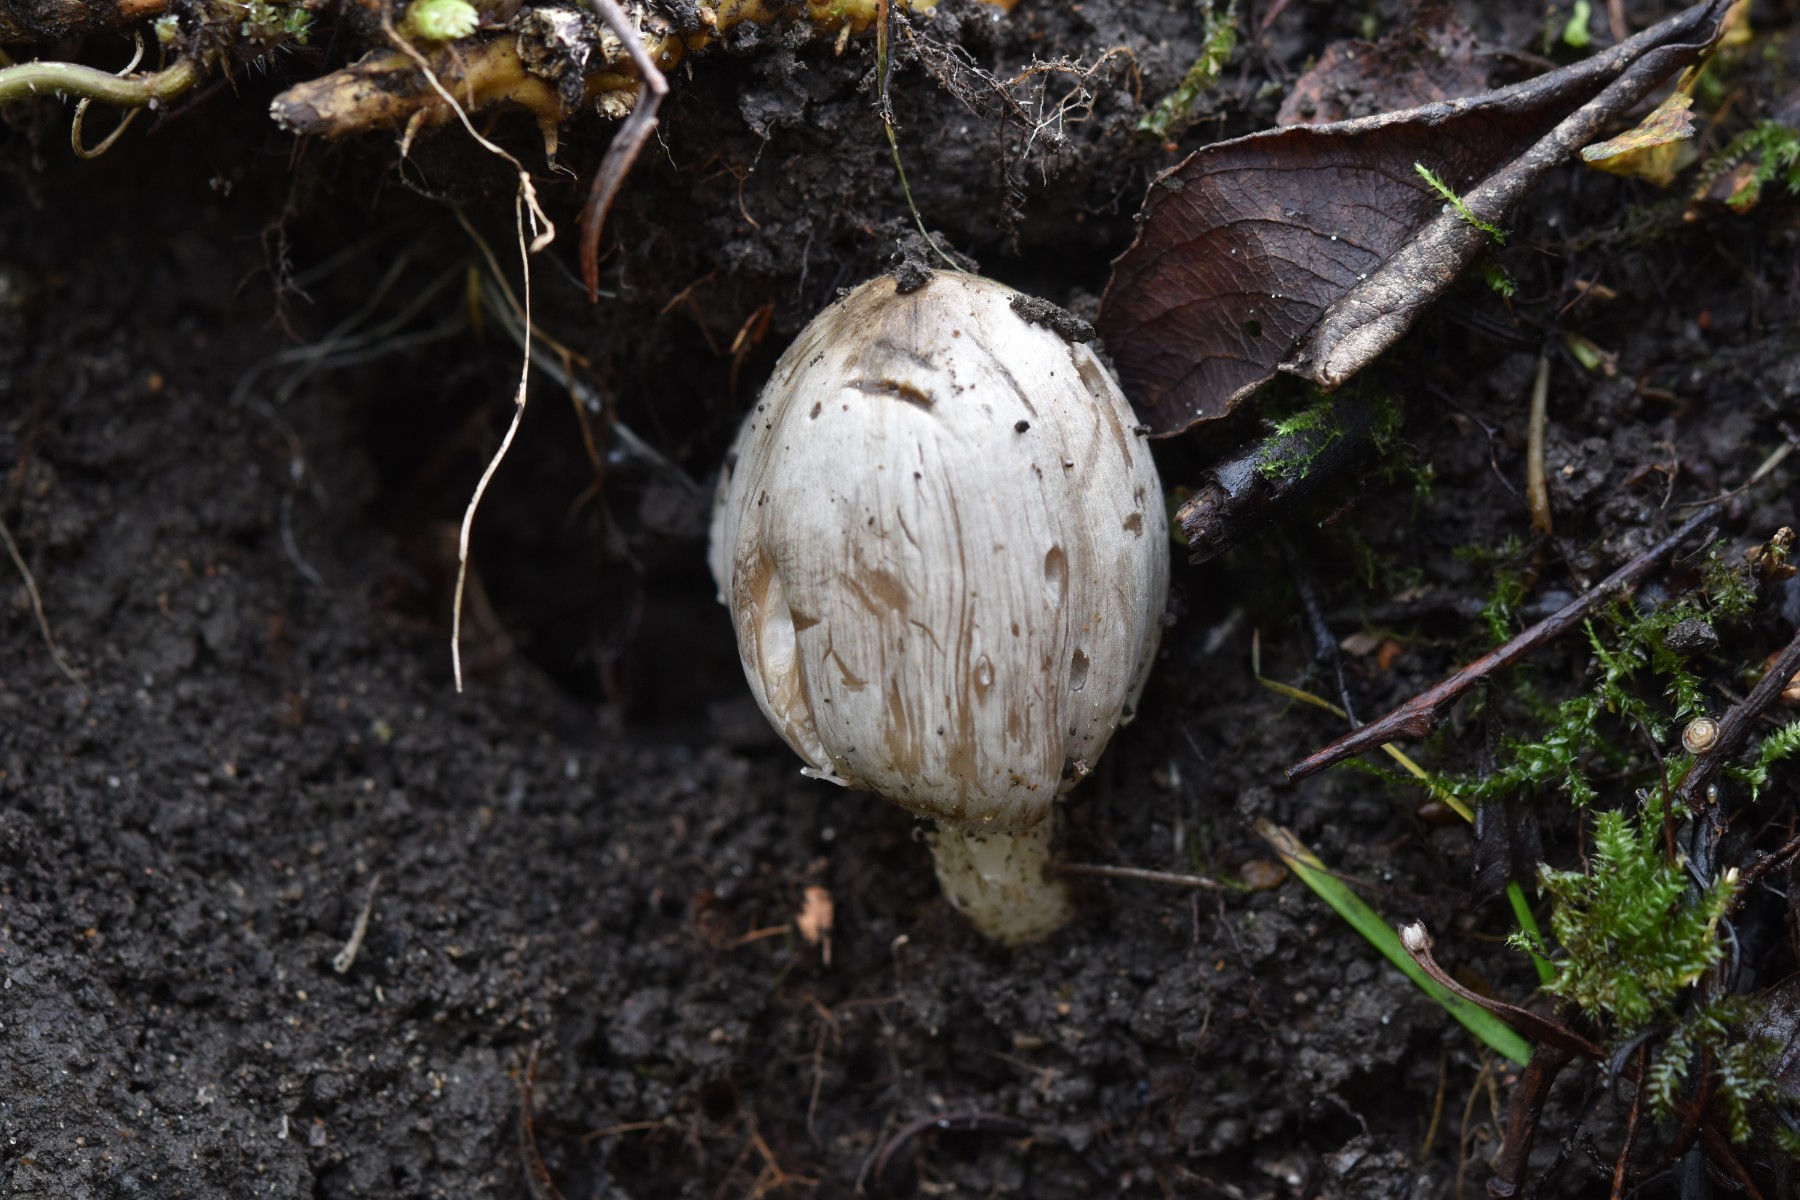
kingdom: Fungi
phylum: Basidiomycota
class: Agaricomycetes
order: Agaricales
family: Psathyrellaceae
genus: Coprinopsis
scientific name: Coprinopsis atramentaria
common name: almindelig blækhat
